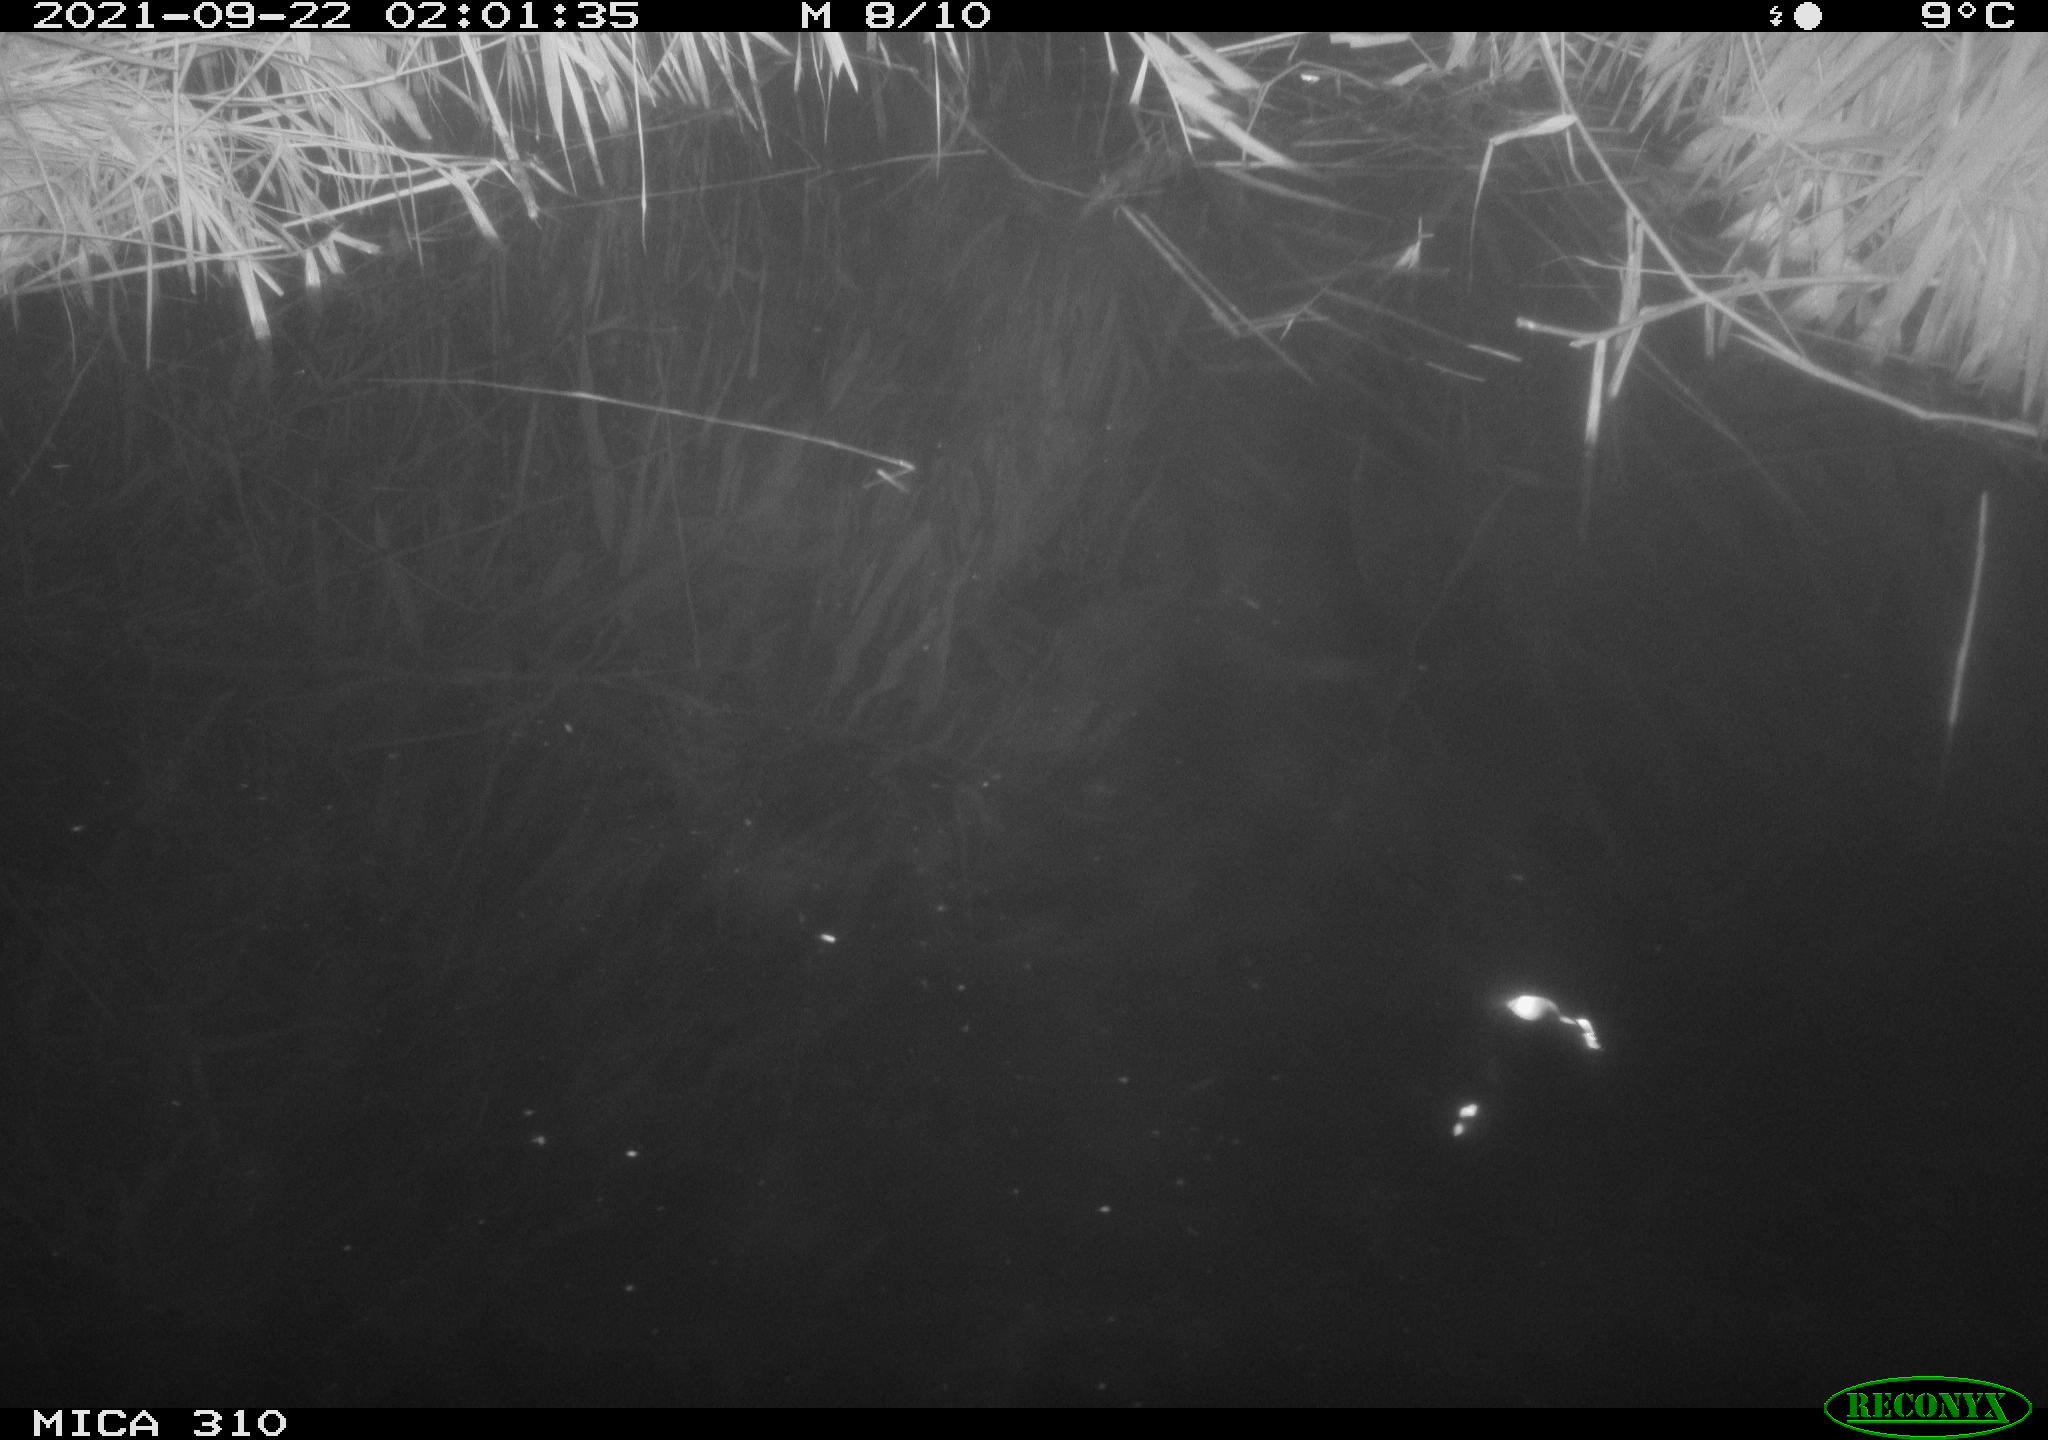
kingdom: Animalia
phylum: Chordata
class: Aves
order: Anseriformes
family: Anatidae
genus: Anas
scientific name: Anas platyrhynchos
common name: Mallard
